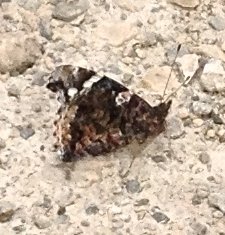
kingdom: Animalia
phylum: Arthropoda
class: Insecta
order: Lepidoptera
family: Nymphalidae
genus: Vanessa
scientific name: Vanessa atalanta
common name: Red Admiral
